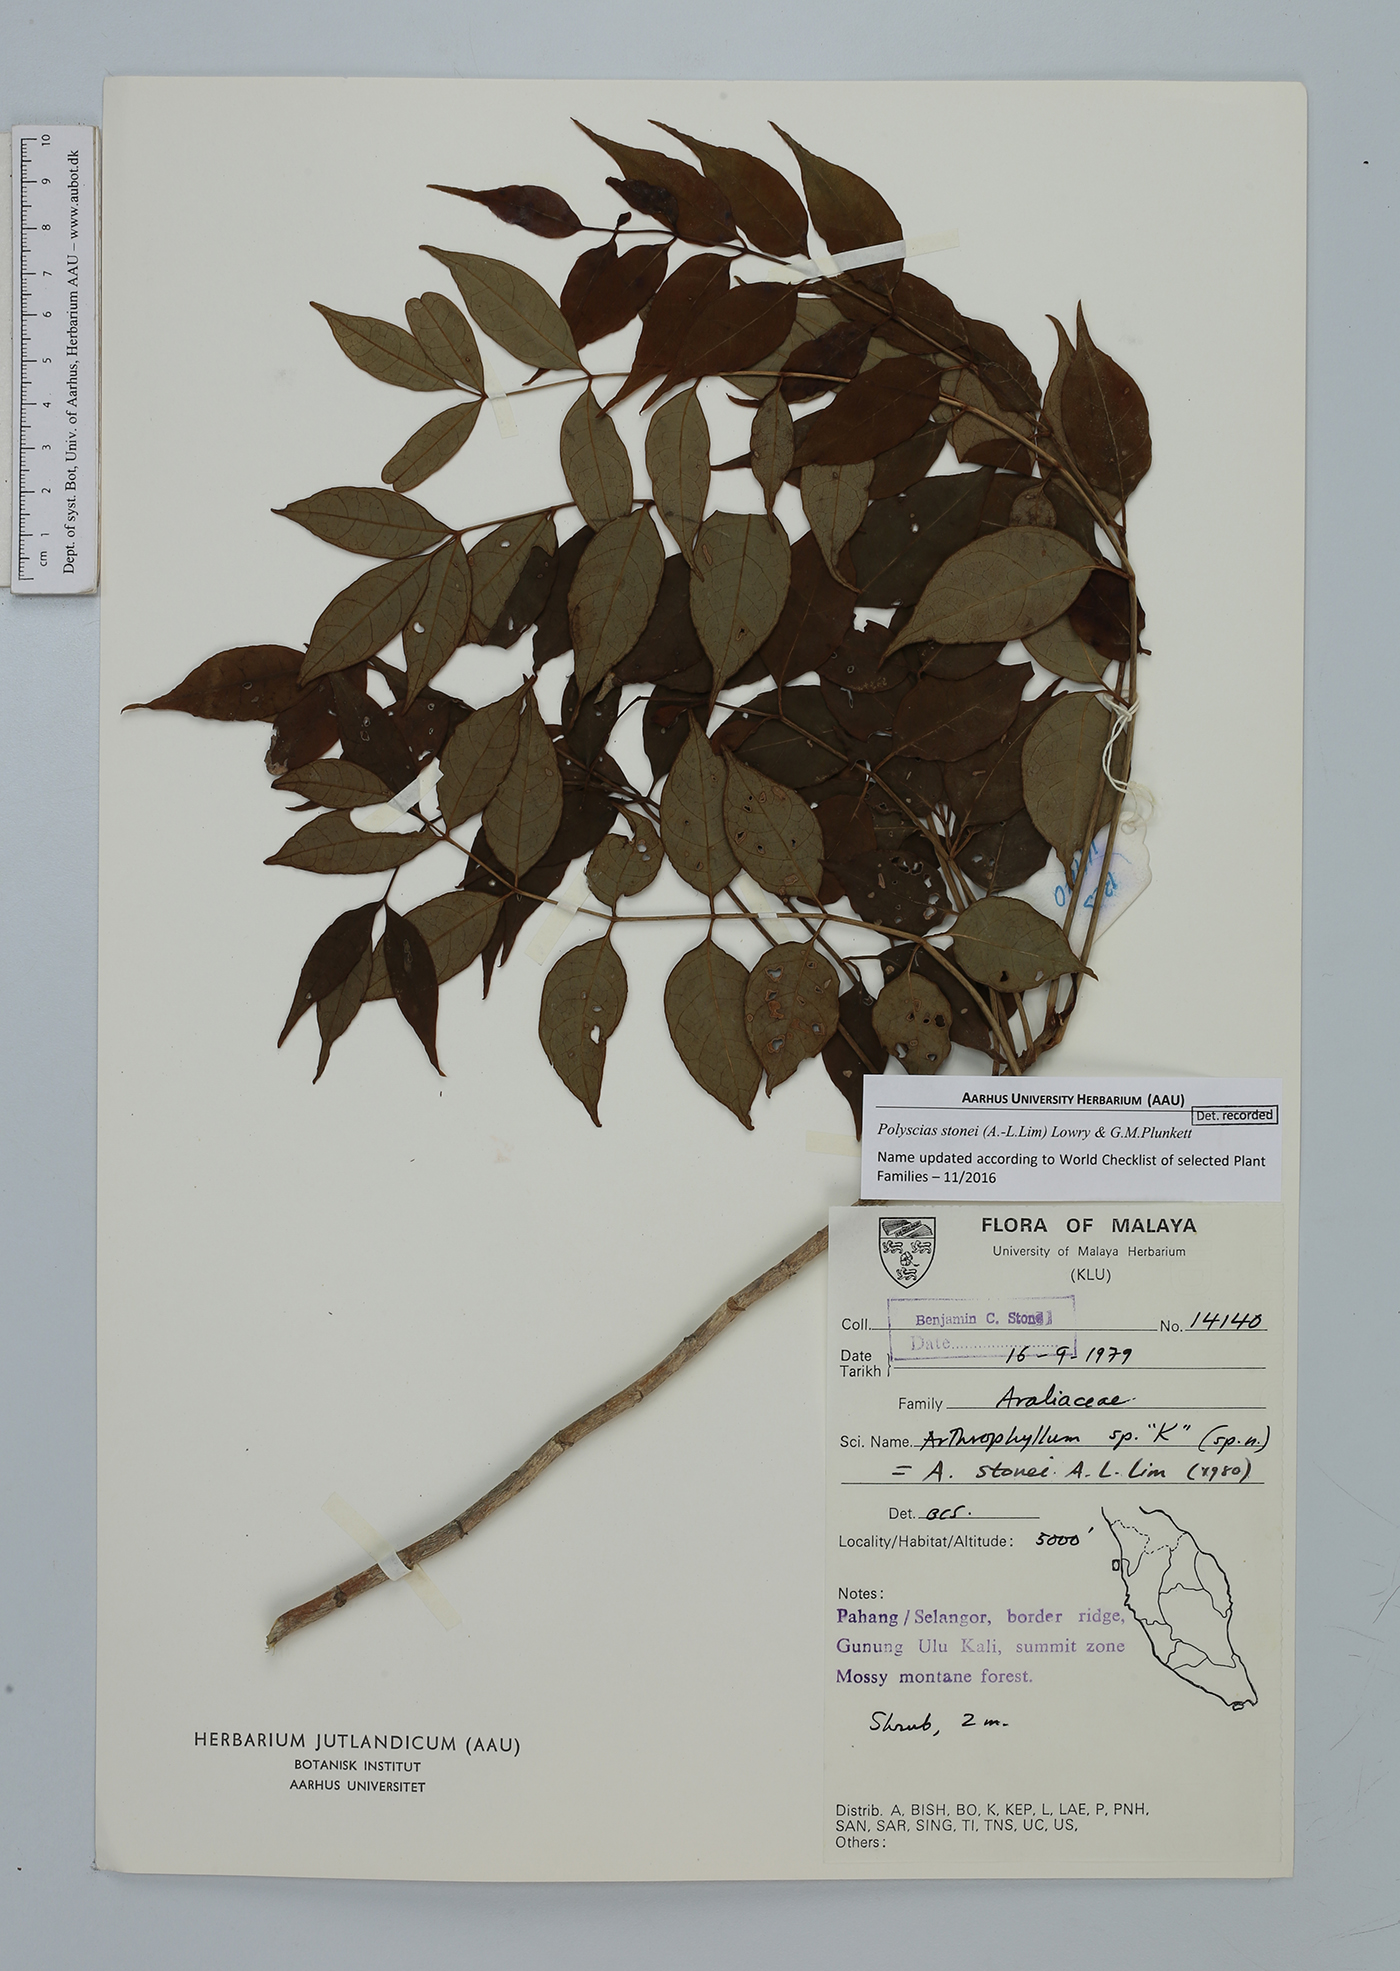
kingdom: Plantae
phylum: Tracheophyta
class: Magnoliopsida
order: Apiales
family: Araliaceae
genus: Polyscias
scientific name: Polyscias stonei
